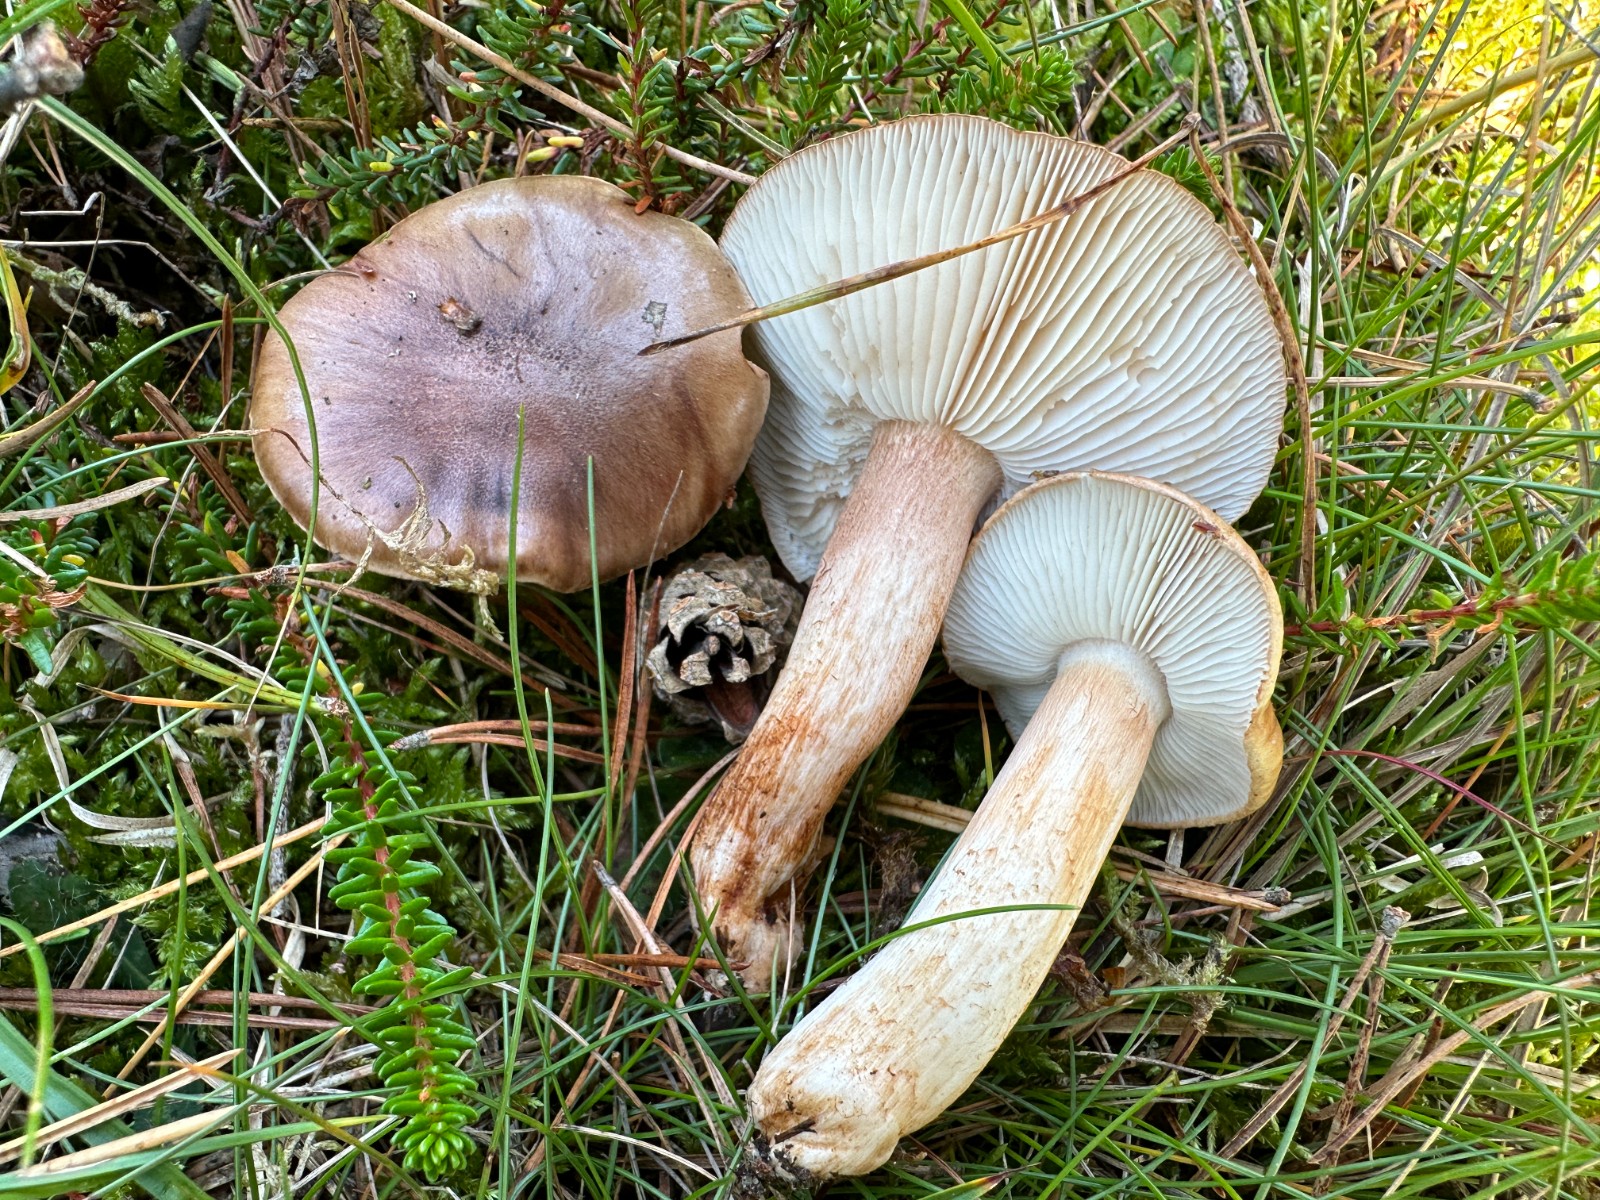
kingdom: Fungi
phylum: Basidiomycota
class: Agaricomycetes
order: Agaricales
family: Tricholomataceae
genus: Tricholoma
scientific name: Tricholoma albobrunneum
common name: kastanie-ridderhat
